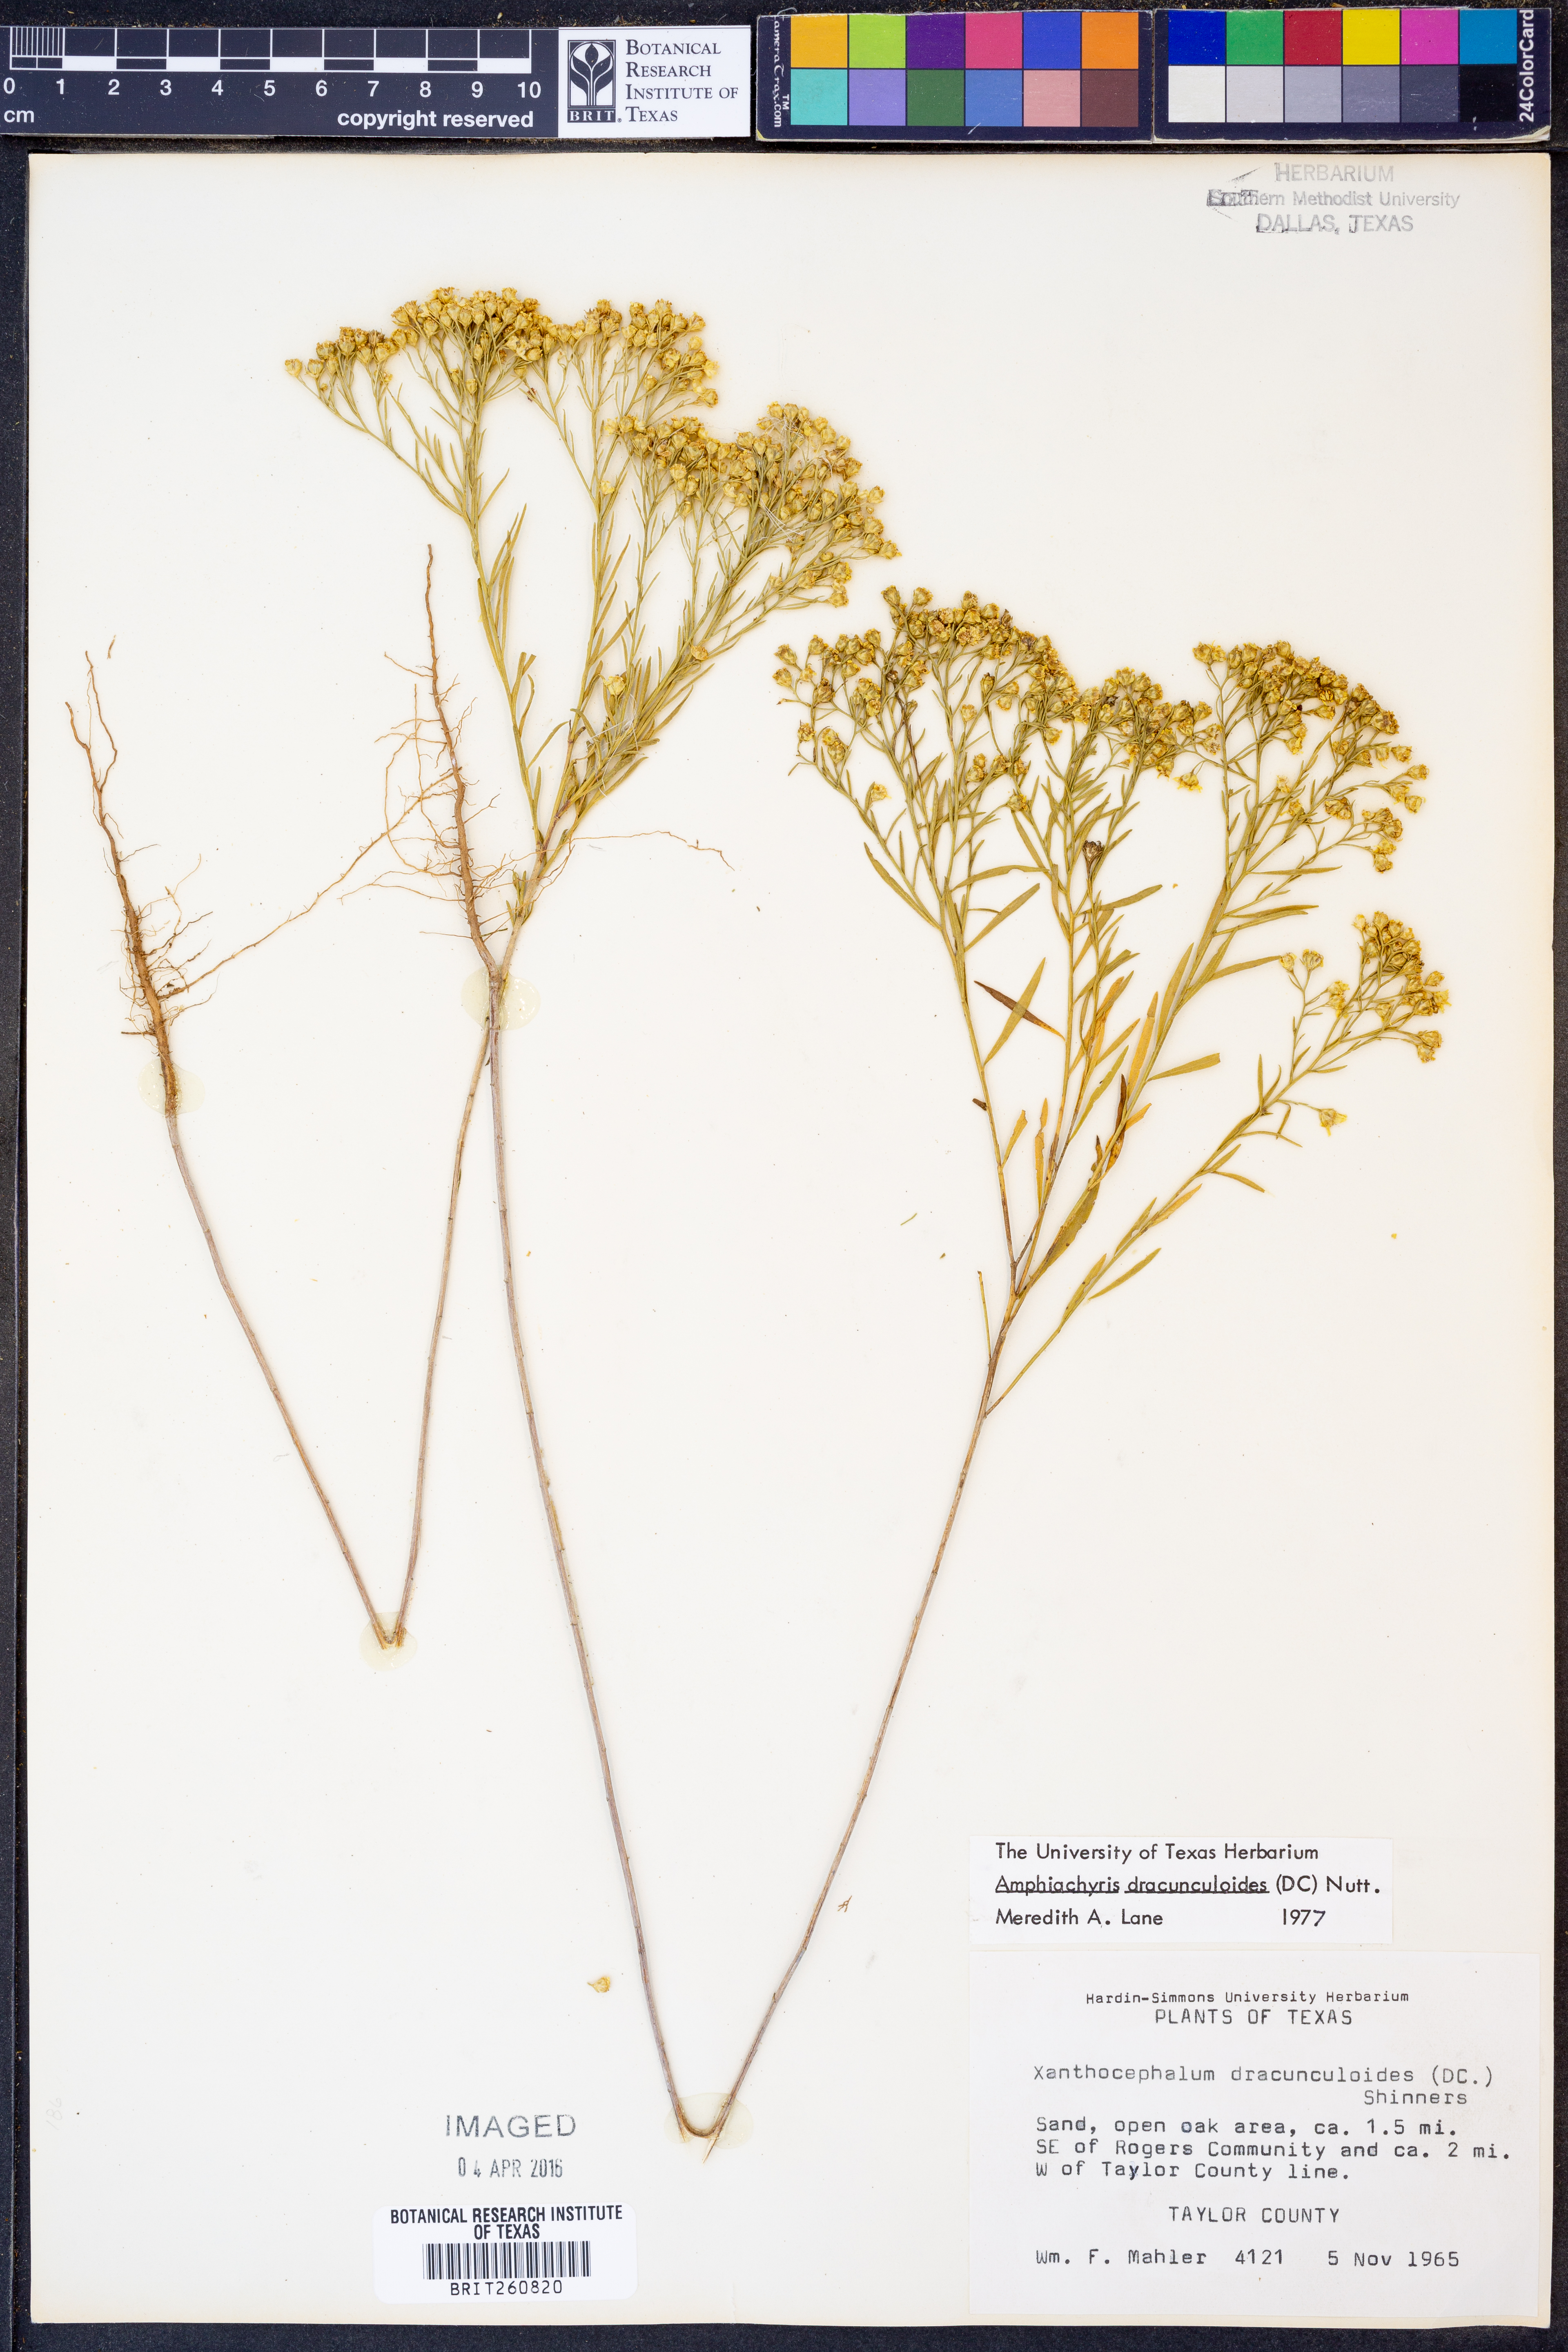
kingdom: Plantae
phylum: Tracheophyta
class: Magnoliopsida
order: Asterales
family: Asteraceae
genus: Amphiachyris
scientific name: Amphiachyris dracunculoides
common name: Broomweed
